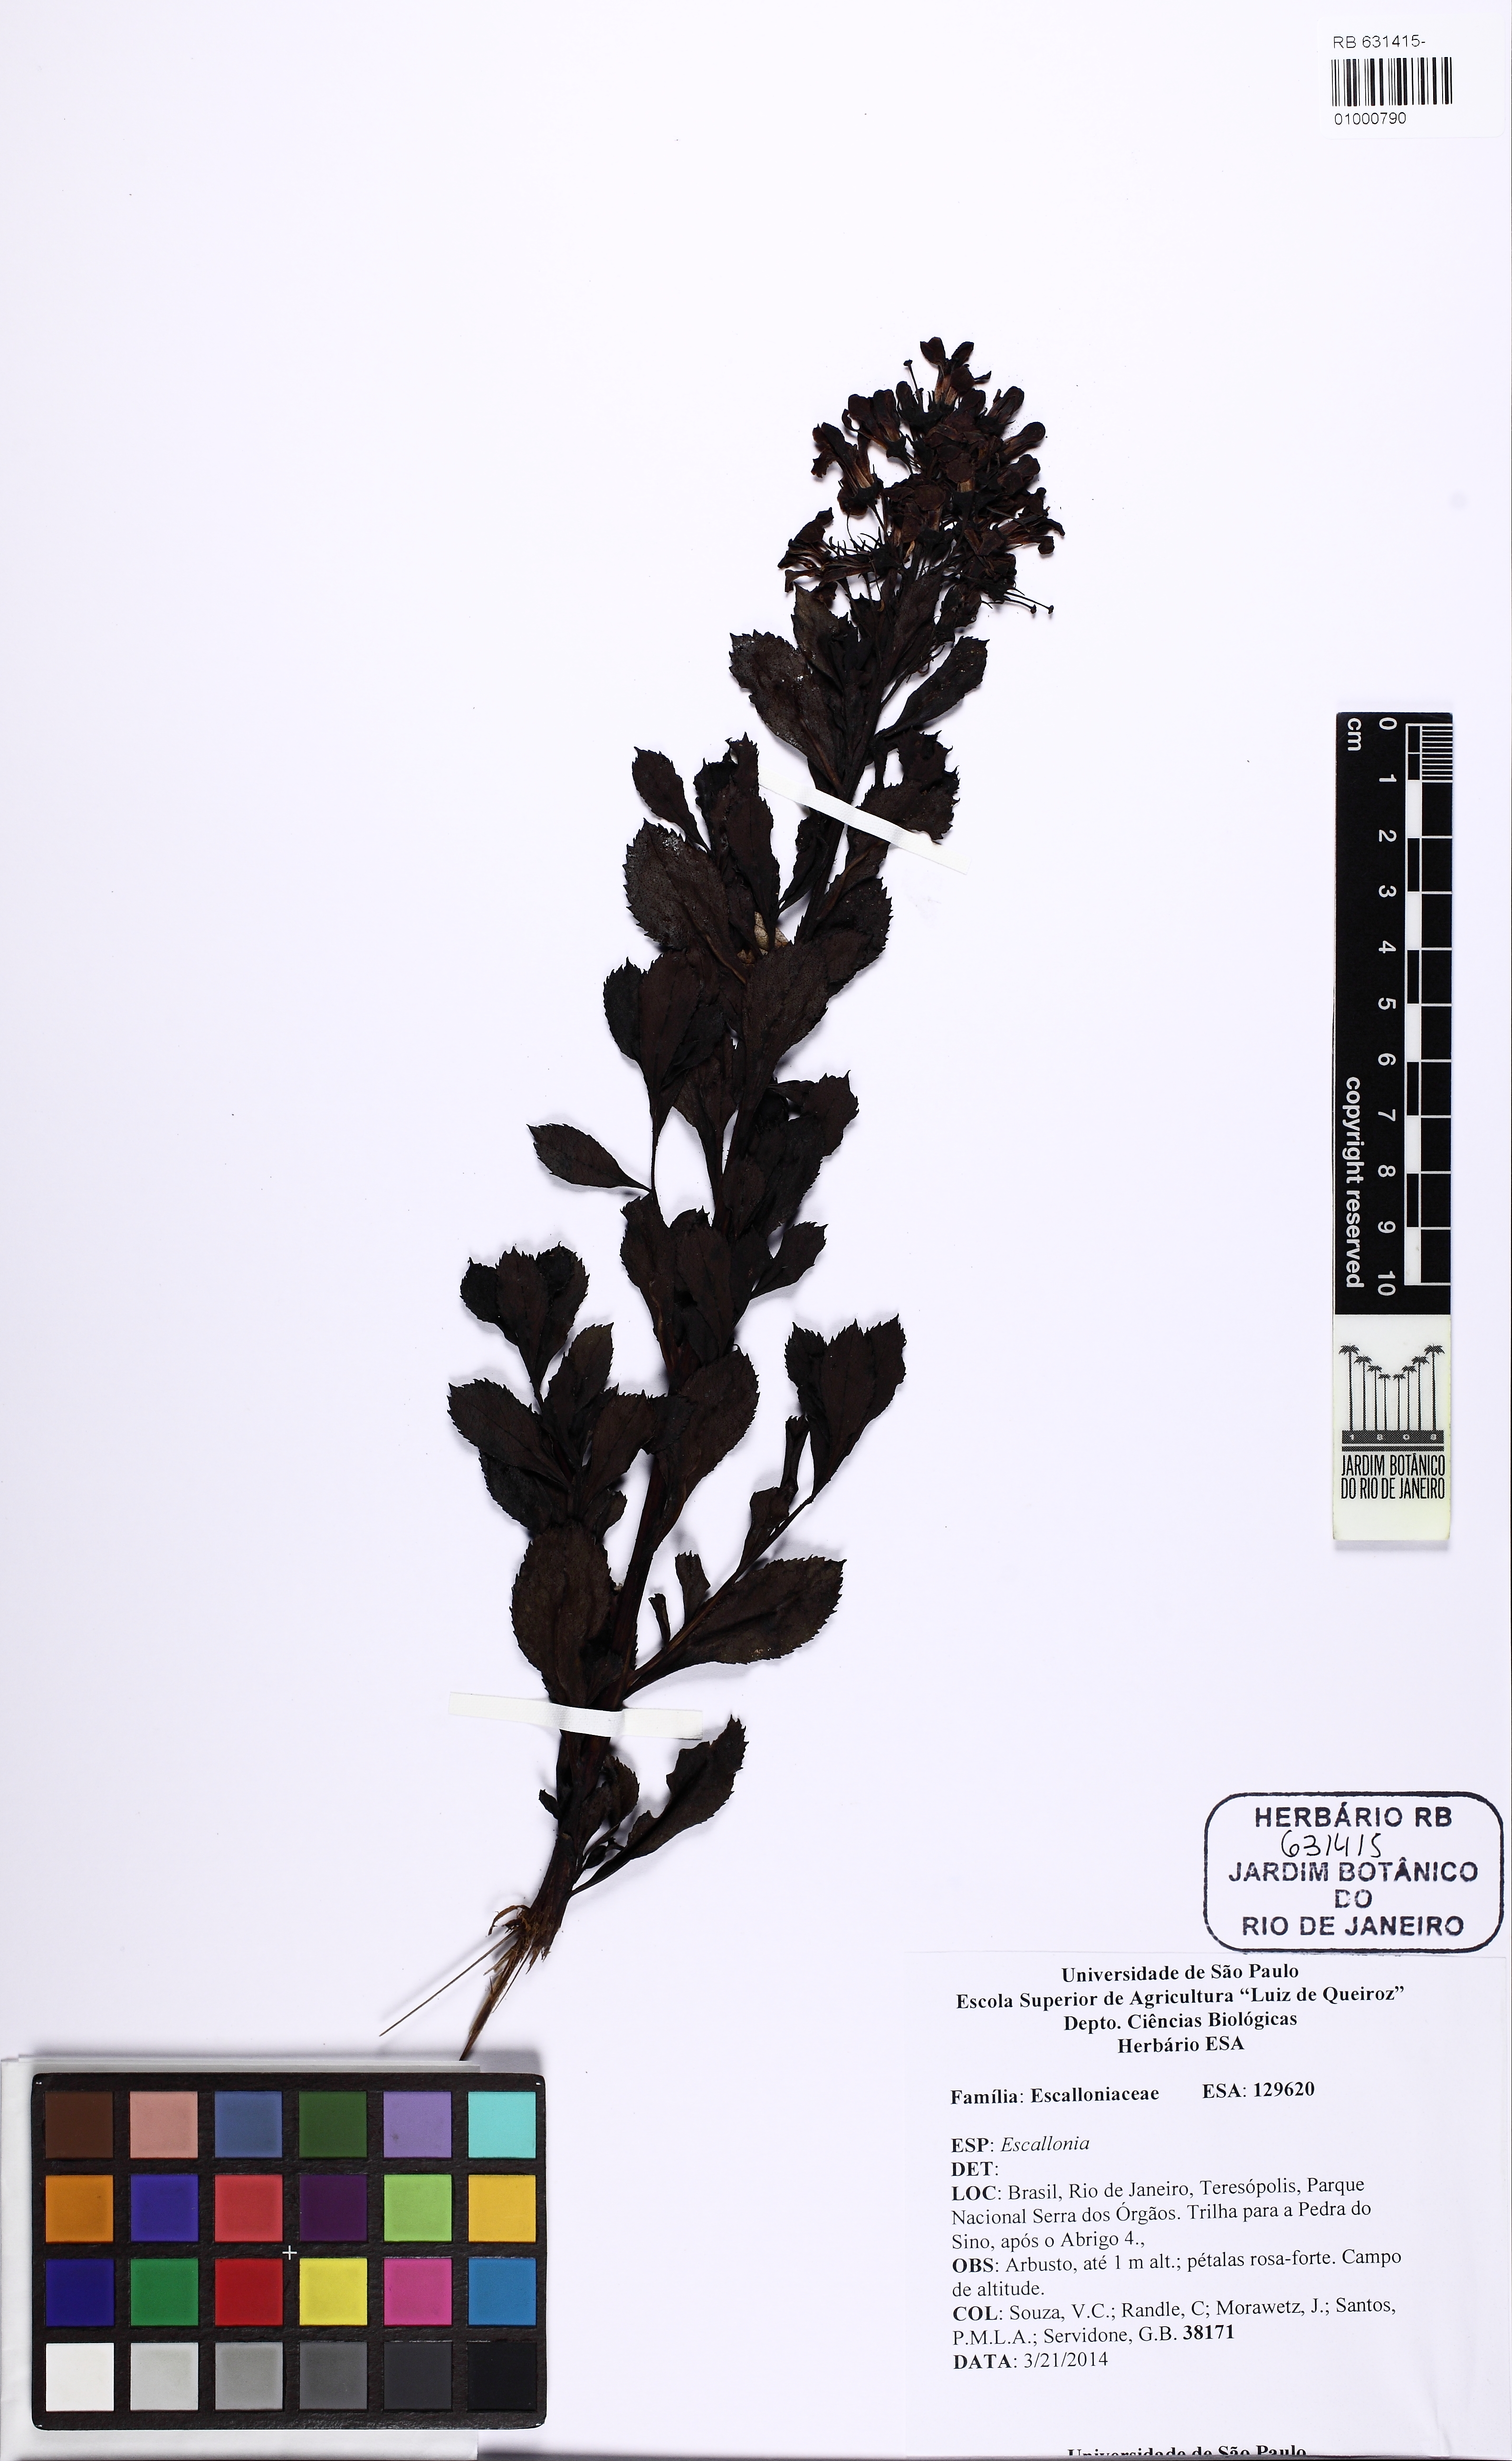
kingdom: Plantae
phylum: Tracheophyta
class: Magnoliopsida
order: Escalloniales
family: Escalloniaceae
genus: Escallonia
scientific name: Escallonia
